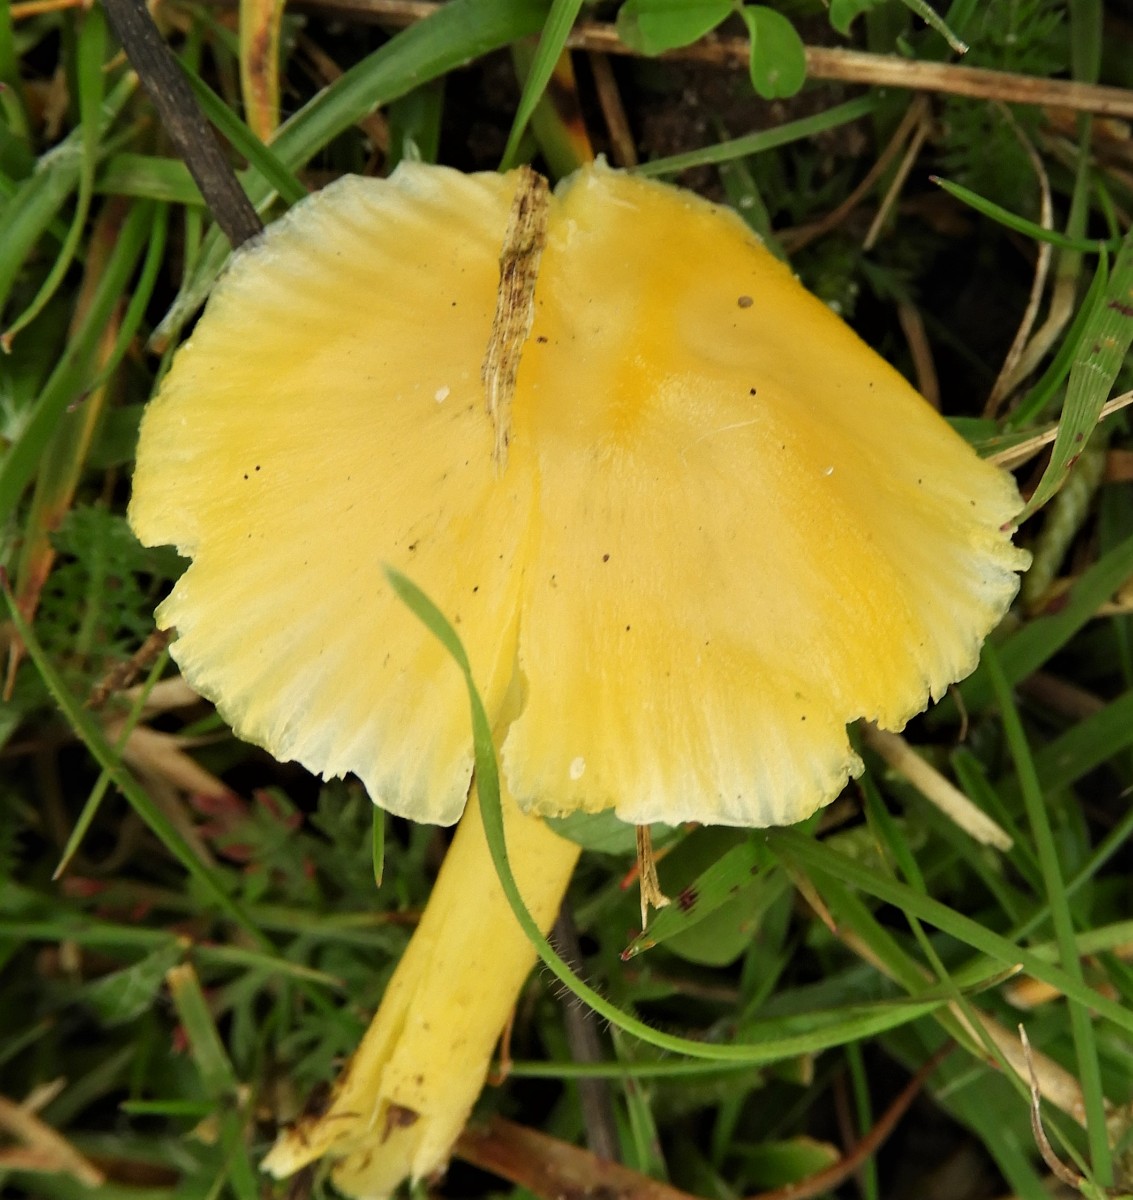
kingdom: Fungi
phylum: Basidiomycota
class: Agaricomycetes
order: Agaricales
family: Hygrophoraceae
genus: Hygrocybe
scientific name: Hygrocybe chlorophana
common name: gul vokshat
